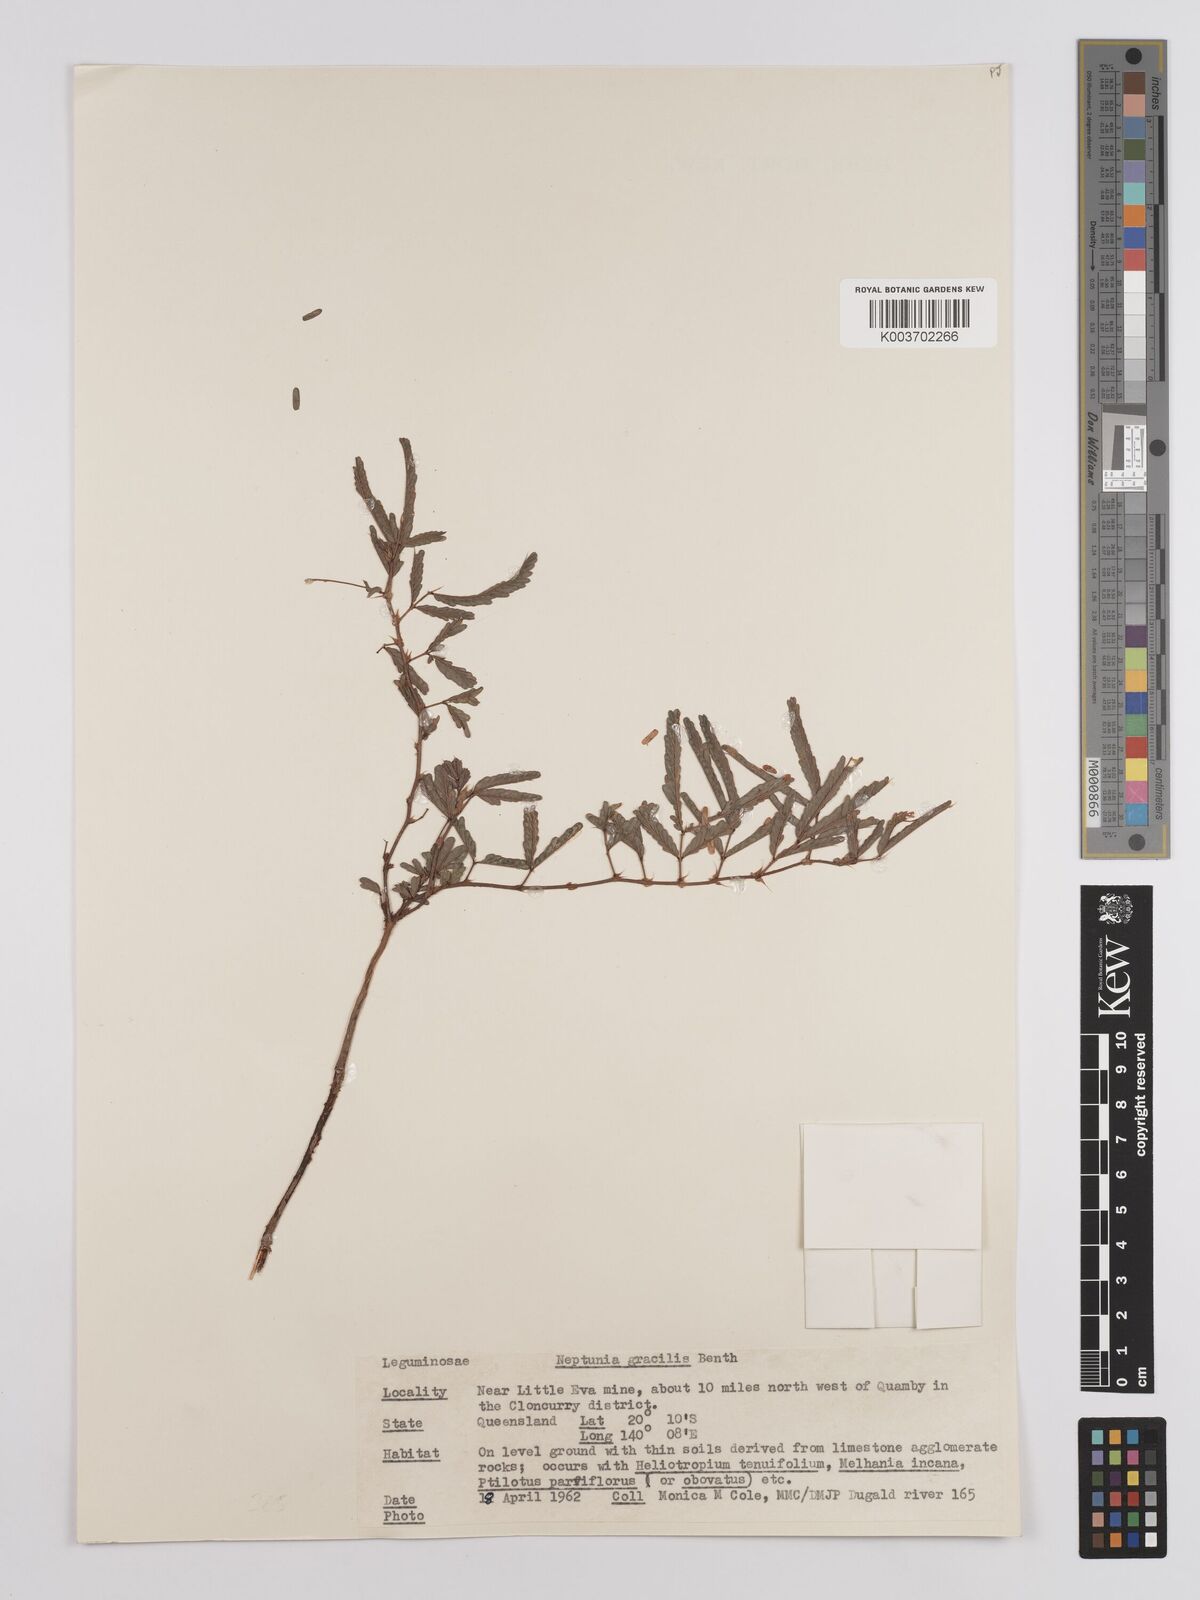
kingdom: Plantae
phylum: Tracheophyta
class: Magnoliopsida
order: Fabales
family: Fabaceae
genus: Neptunia
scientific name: Neptunia gracilis
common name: Sensitive-plant
